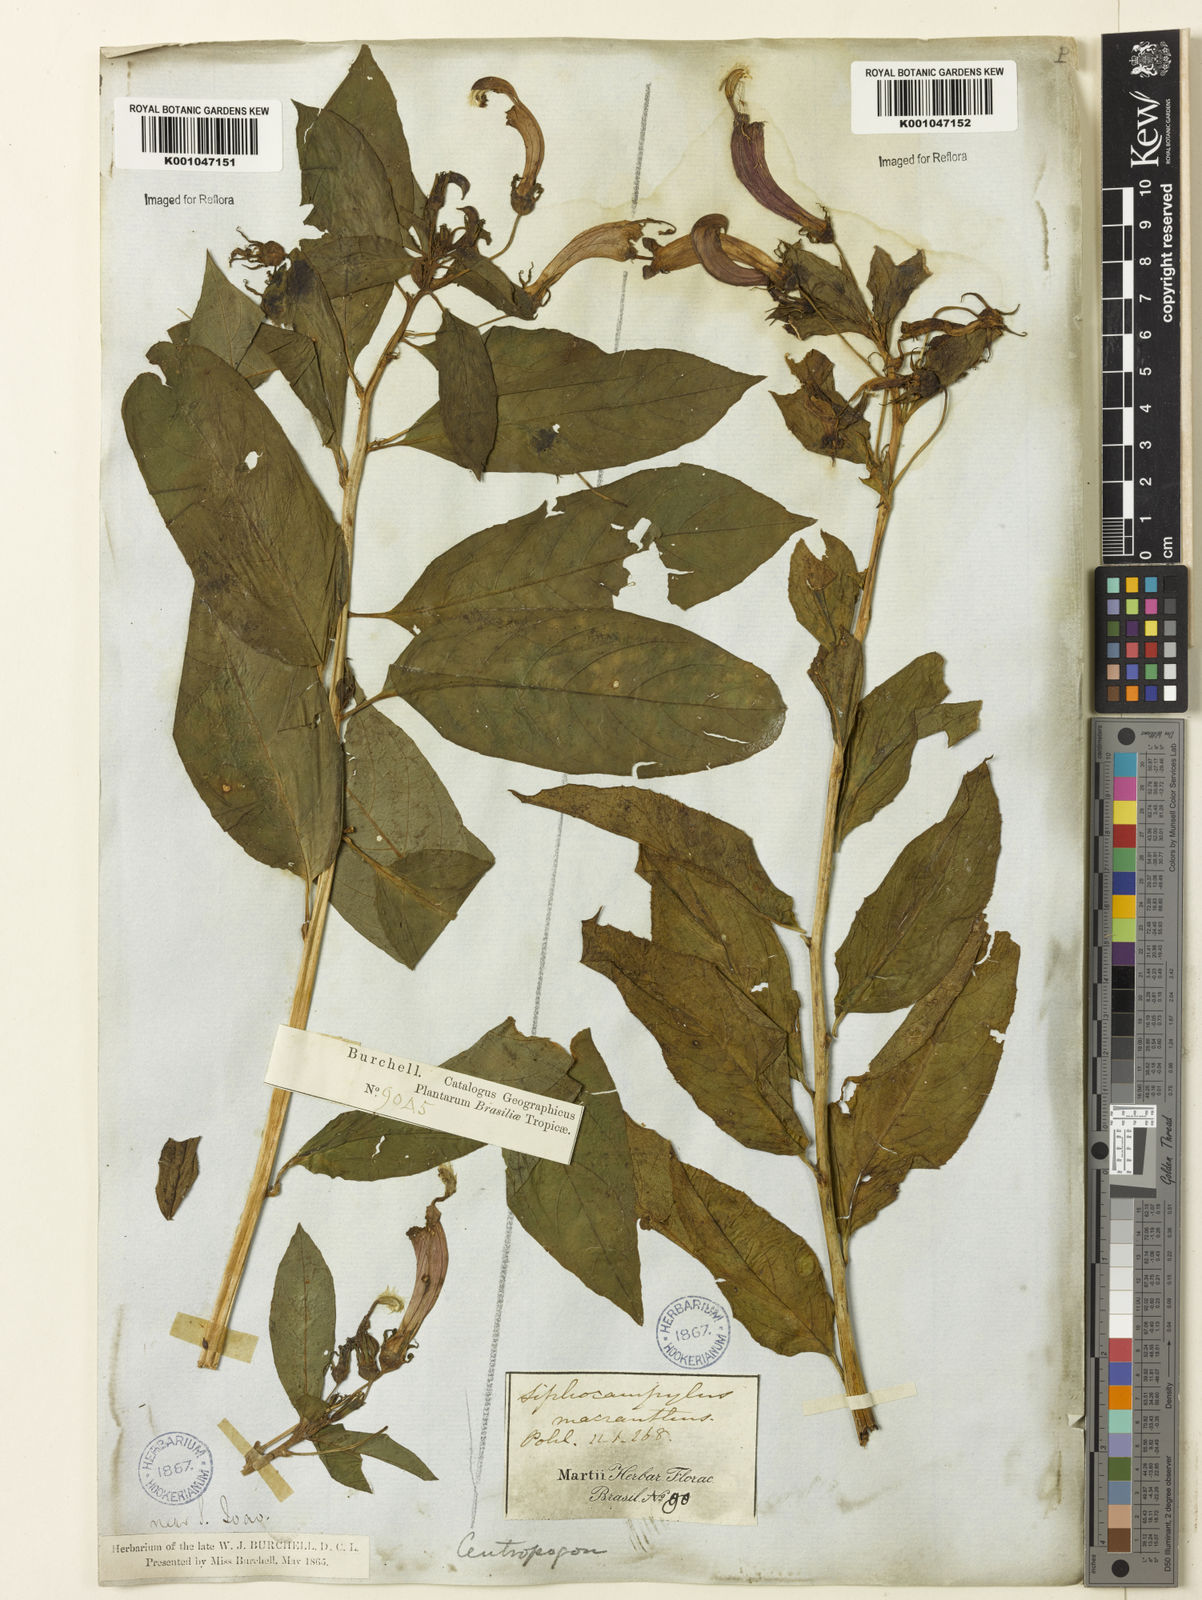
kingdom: Plantae
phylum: Tracheophyta
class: Magnoliopsida
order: Asterales
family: Campanulaceae
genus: Centropogon
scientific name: Centropogon cornutus
